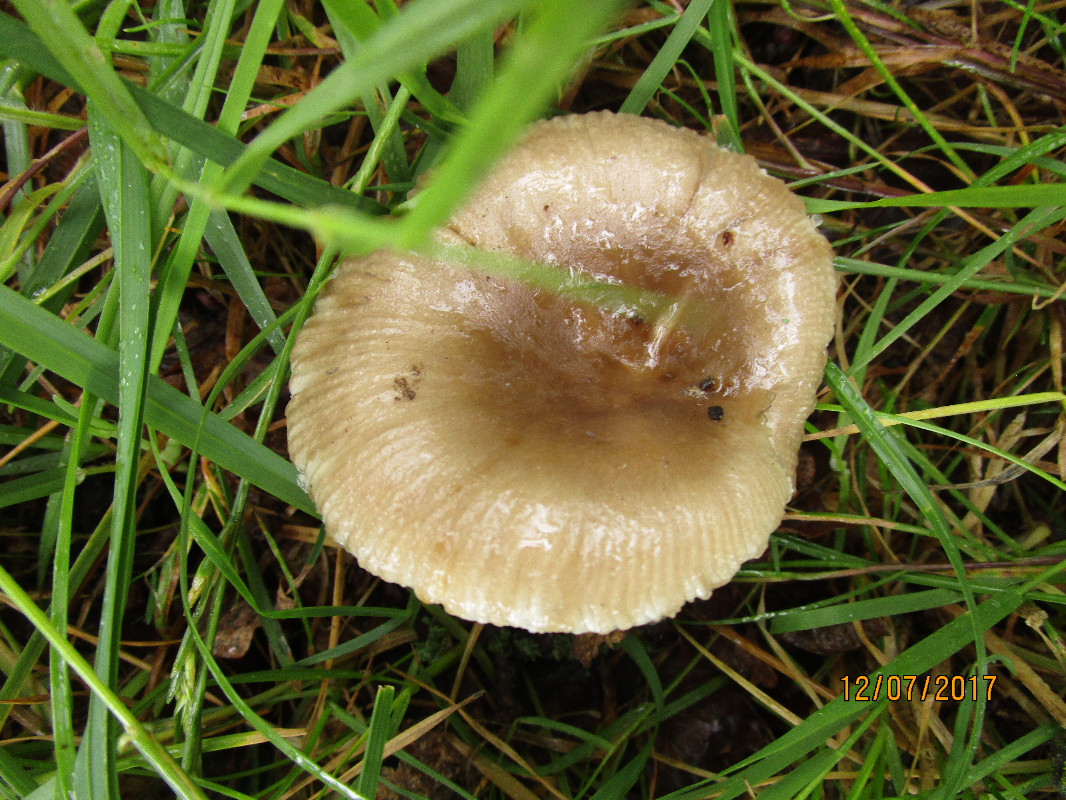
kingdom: Fungi
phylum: Basidiomycota
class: Agaricomycetes
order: Russulales
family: Russulaceae
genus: Russula
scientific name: Russula amoenolens
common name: skarp kam-skørhat
